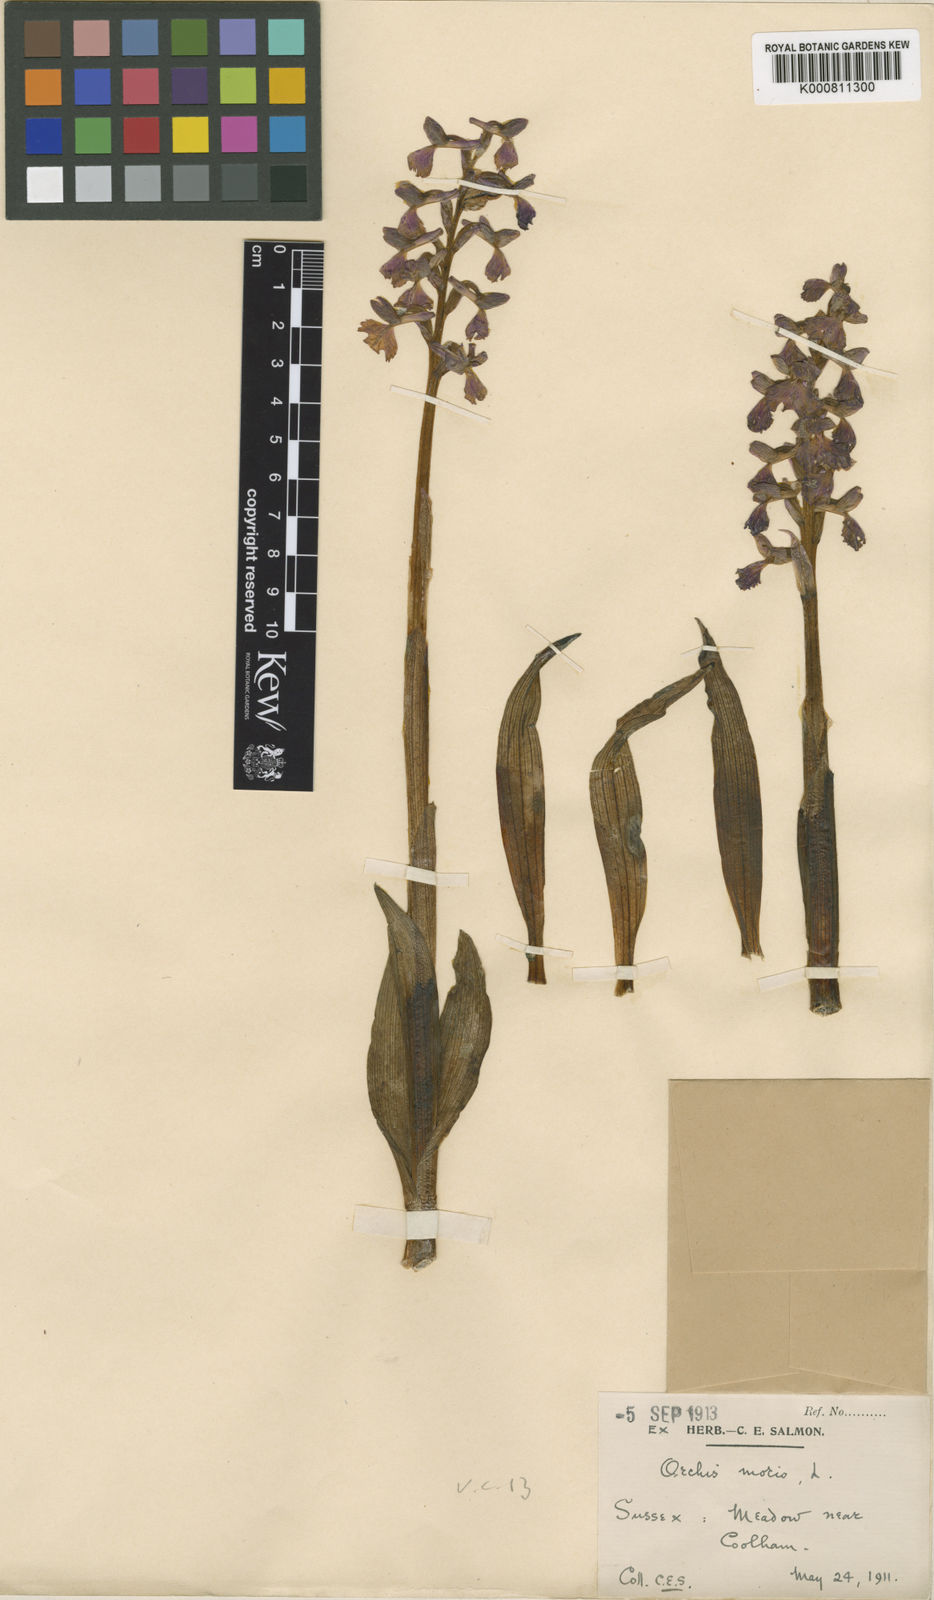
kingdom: Plantae
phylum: Tracheophyta
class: Liliopsida
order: Asparagales
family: Orchidaceae
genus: Anacamptis
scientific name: Anacamptis morio
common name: Green-winged orchid
